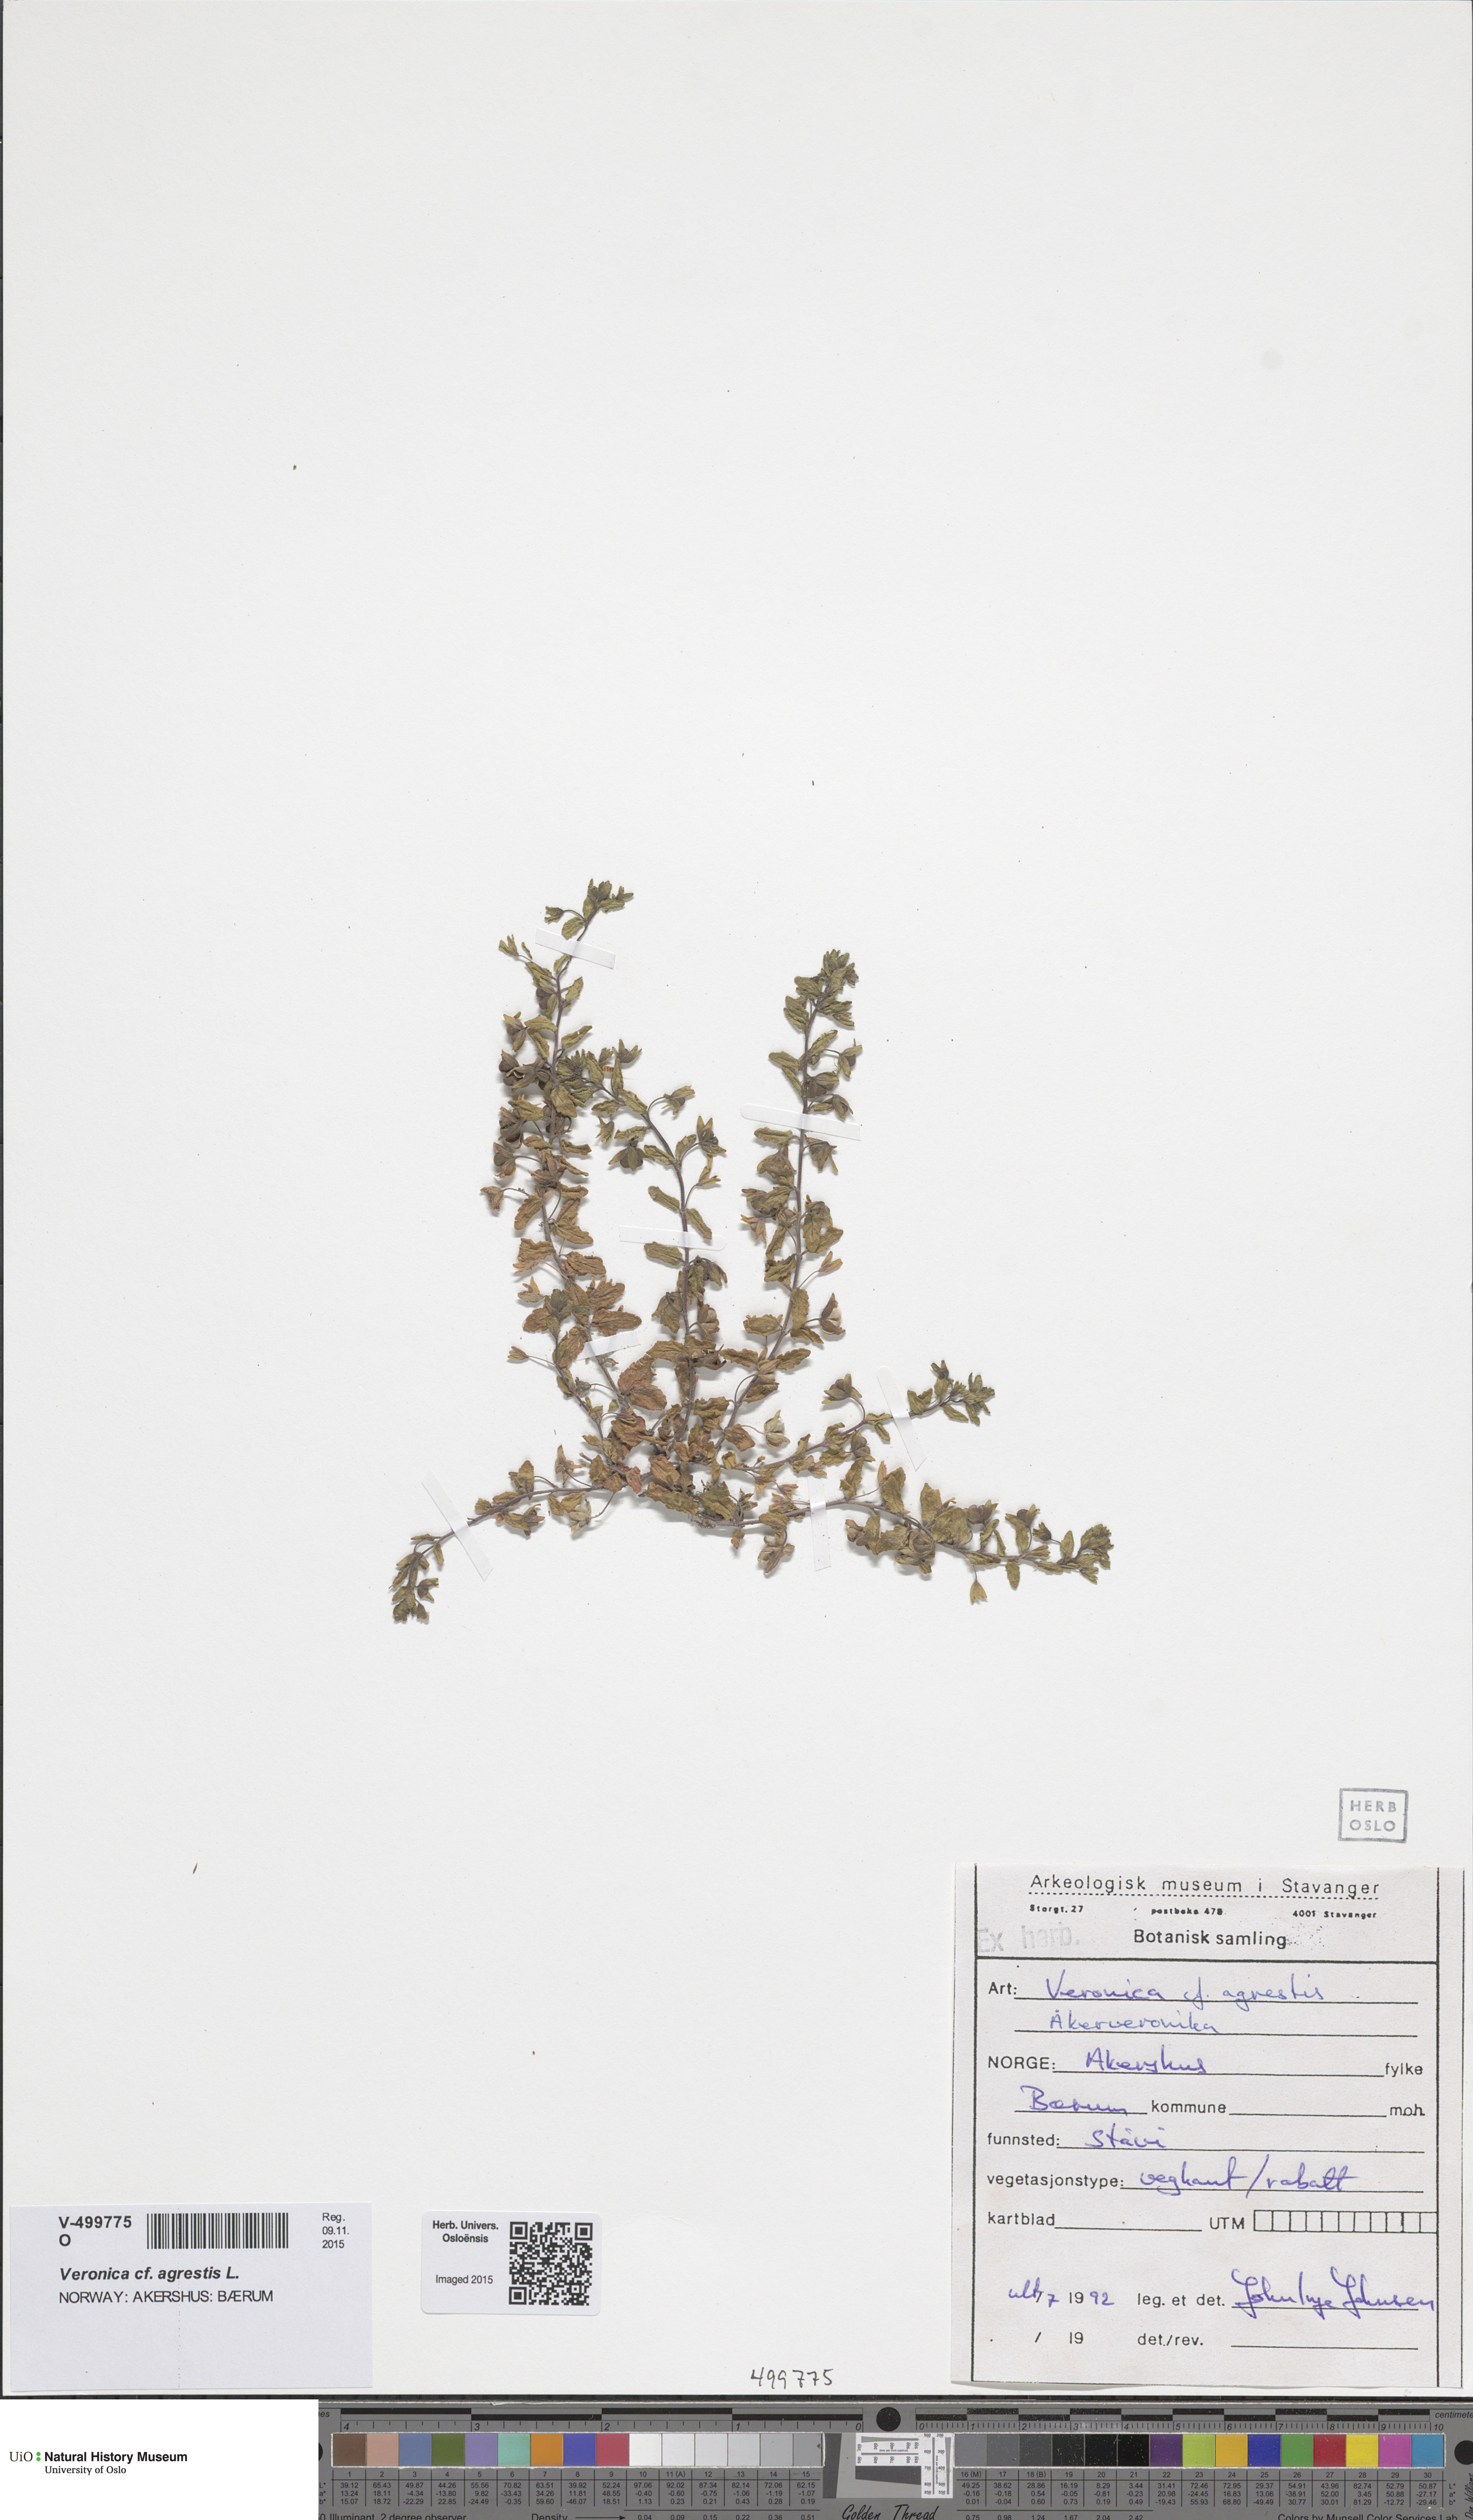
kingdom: Plantae
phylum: Tracheophyta
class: Magnoliopsida
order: Lamiales
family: Plantaginaceae
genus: Veronica
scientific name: Veronica agrestis
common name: Green field-speedwell
